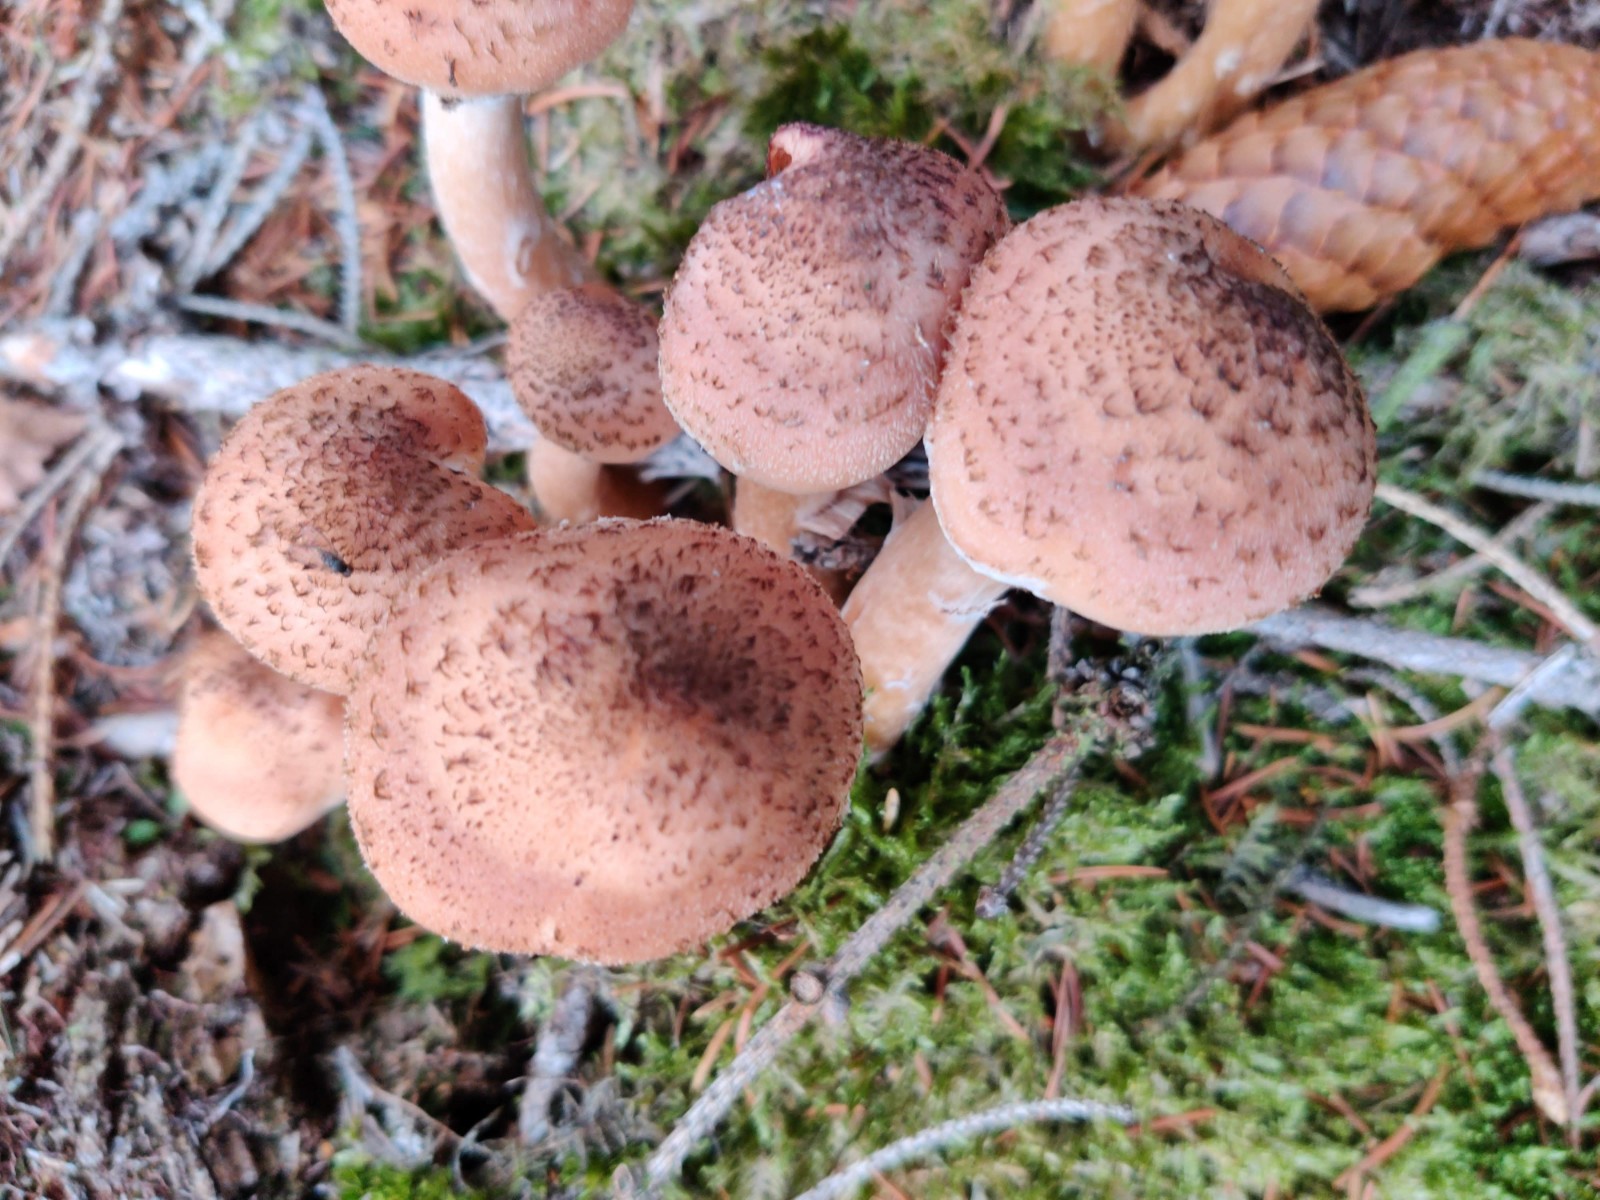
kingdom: Fungi
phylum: Basidiomycota
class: Agaricomycetes
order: Agaricales
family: Physalacriaceae
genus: Armillaria
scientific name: Armillaria ostoyae
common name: mørk honningsvamp
